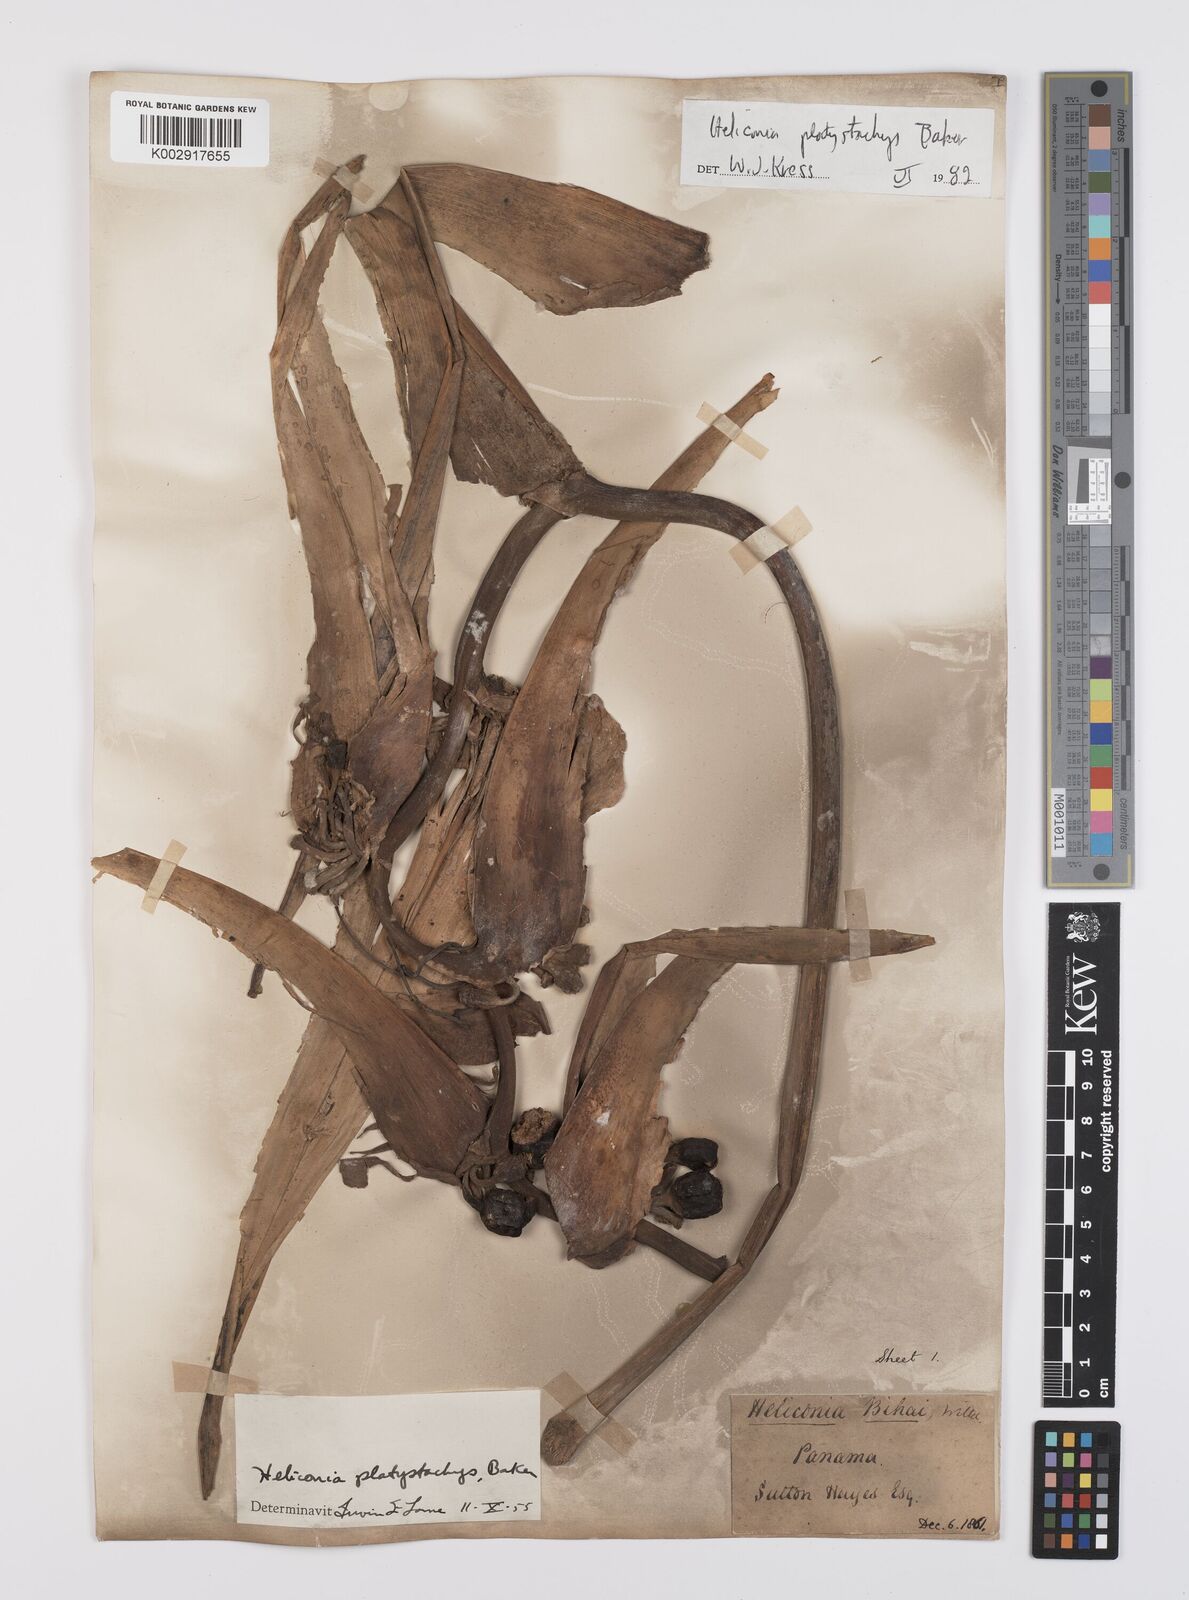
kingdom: Plantae
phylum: Tracheophyta
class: Liliopsida
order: Zingiberales
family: Heliconiaceae
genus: Heliconia
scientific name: Heliconia platystachys
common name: False bird of paradise
